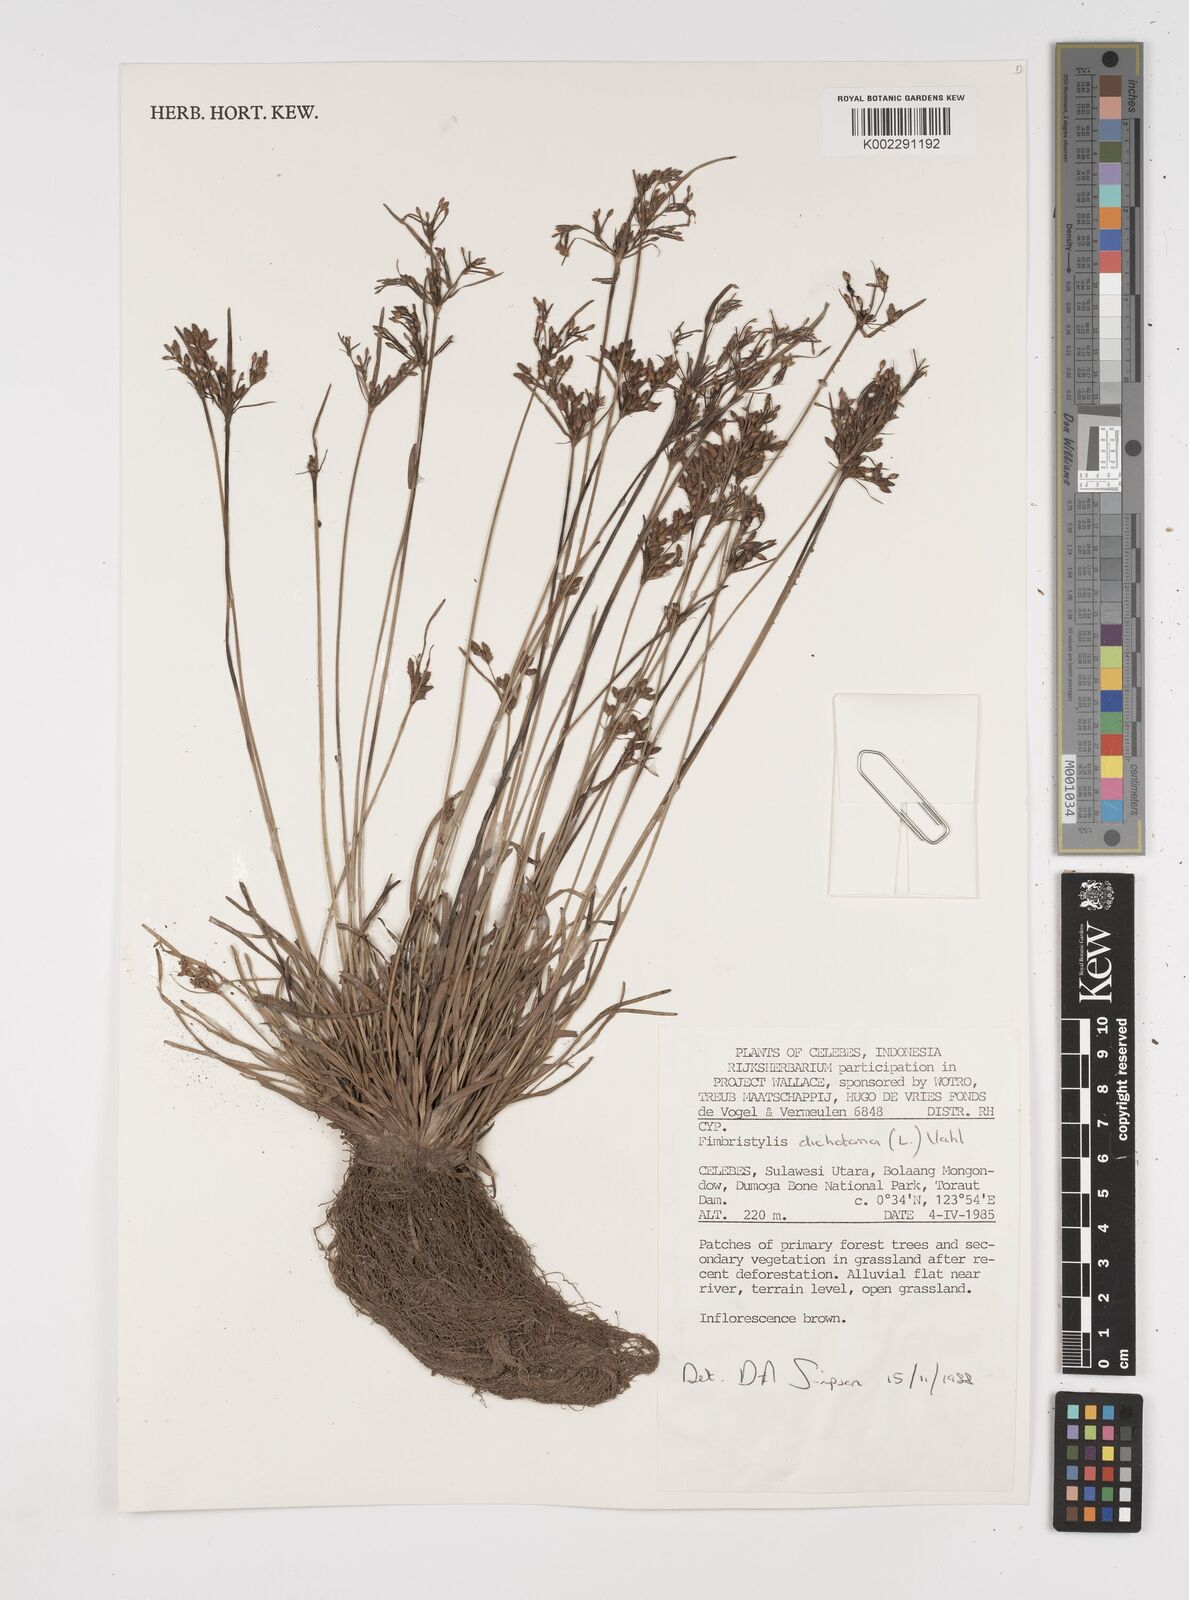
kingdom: Plantae
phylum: Tracheophyta
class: Liliopsida
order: Poales
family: Cyperaceae
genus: Fimbristylis
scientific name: Fimbristylis dichotoma
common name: Forked fimbry
